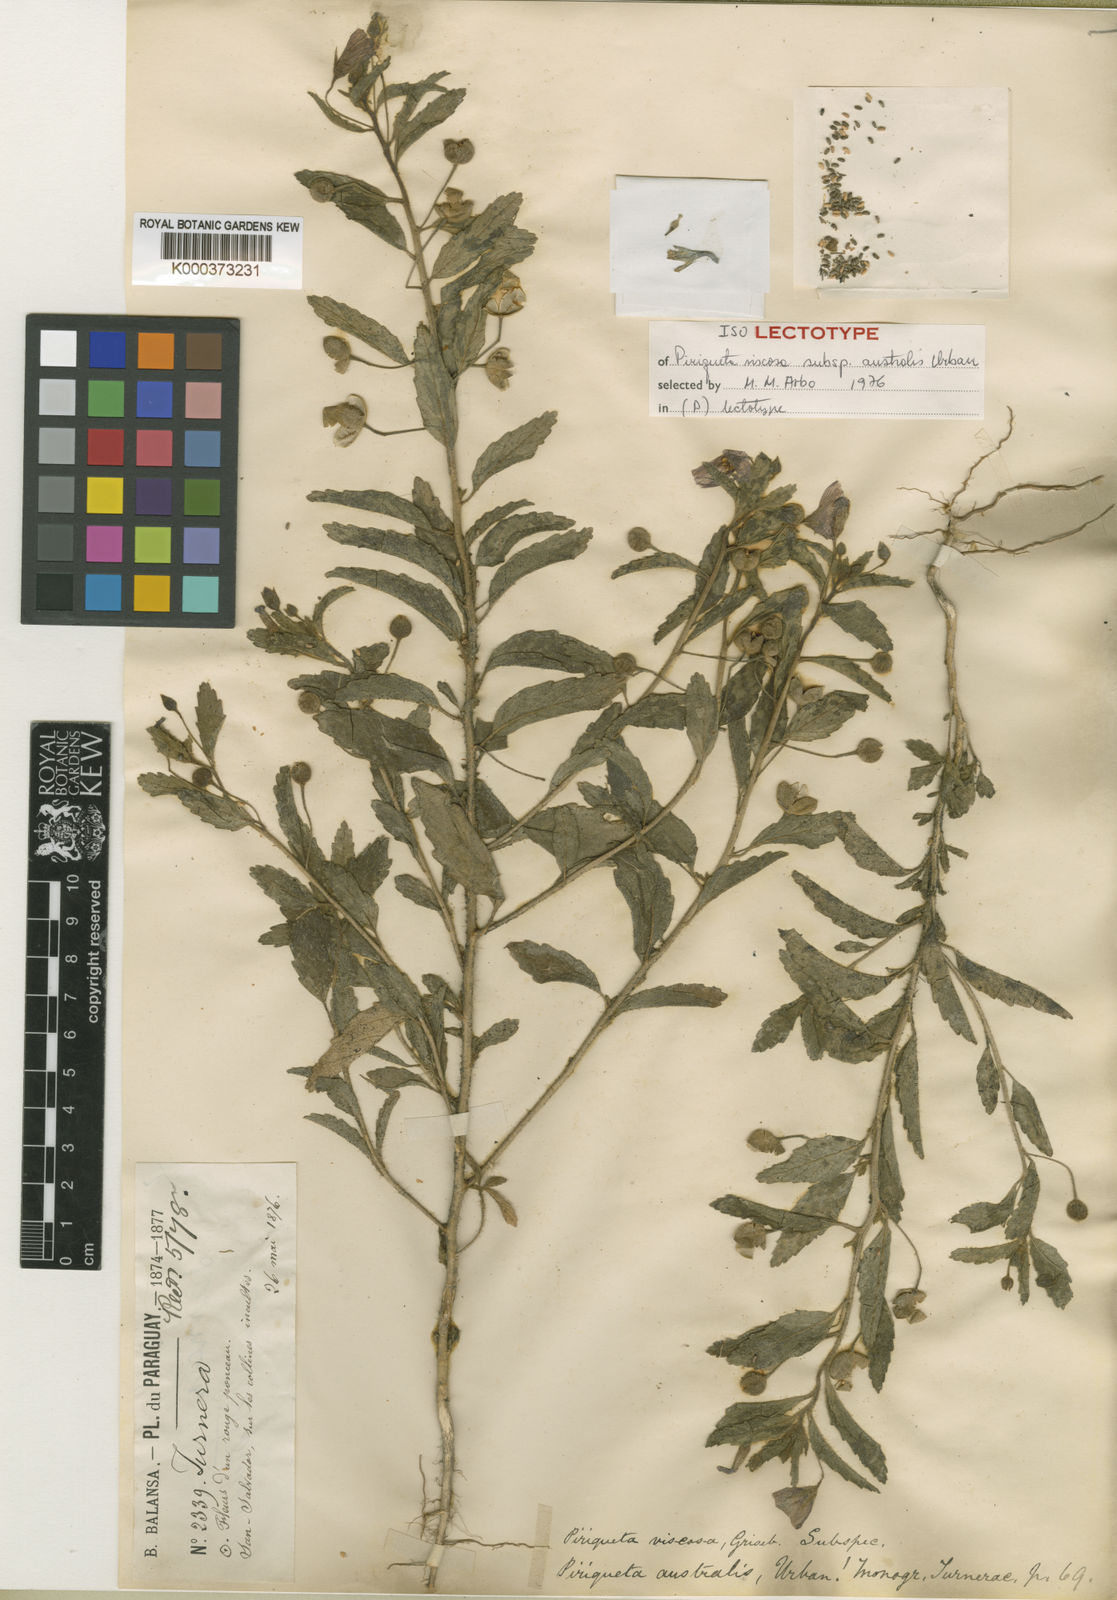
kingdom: Plantae
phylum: Tracheophyta
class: Magnoliopsida
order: Malpighiales
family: Turneraceae
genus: Piriqueta
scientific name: Piriqueta morongii
